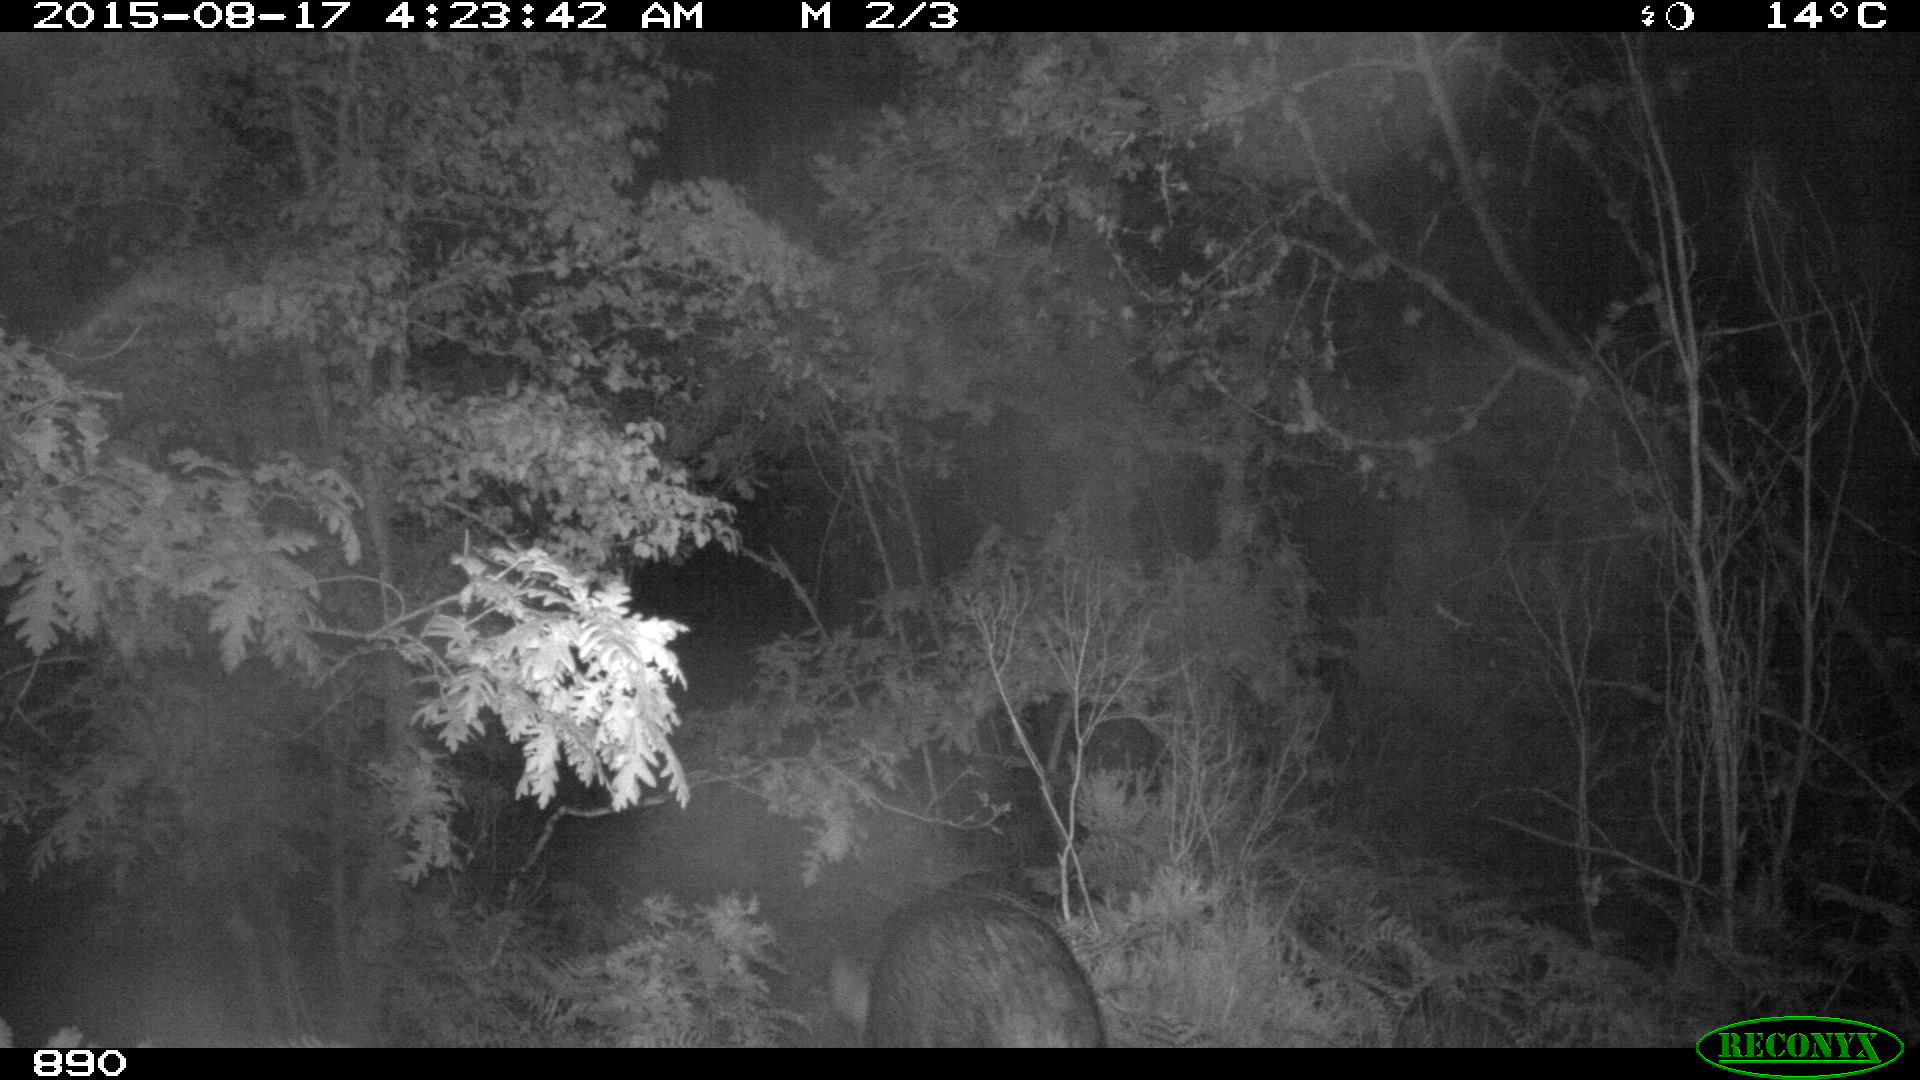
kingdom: Animalia
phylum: Chordata
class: Mammalia
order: Artiodactyla
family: Suidae
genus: Sus
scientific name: Sus scrofa
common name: Wild boar
